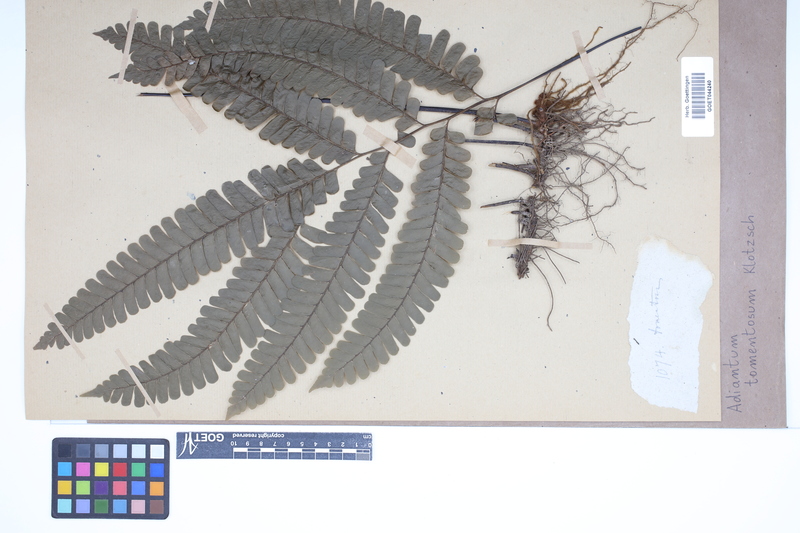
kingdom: Plantae
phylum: Tracheophyta
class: Polypodiopsida
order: Polypodiales
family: Pteridaceae
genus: Adiantum
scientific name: Adiantum tomentosum
